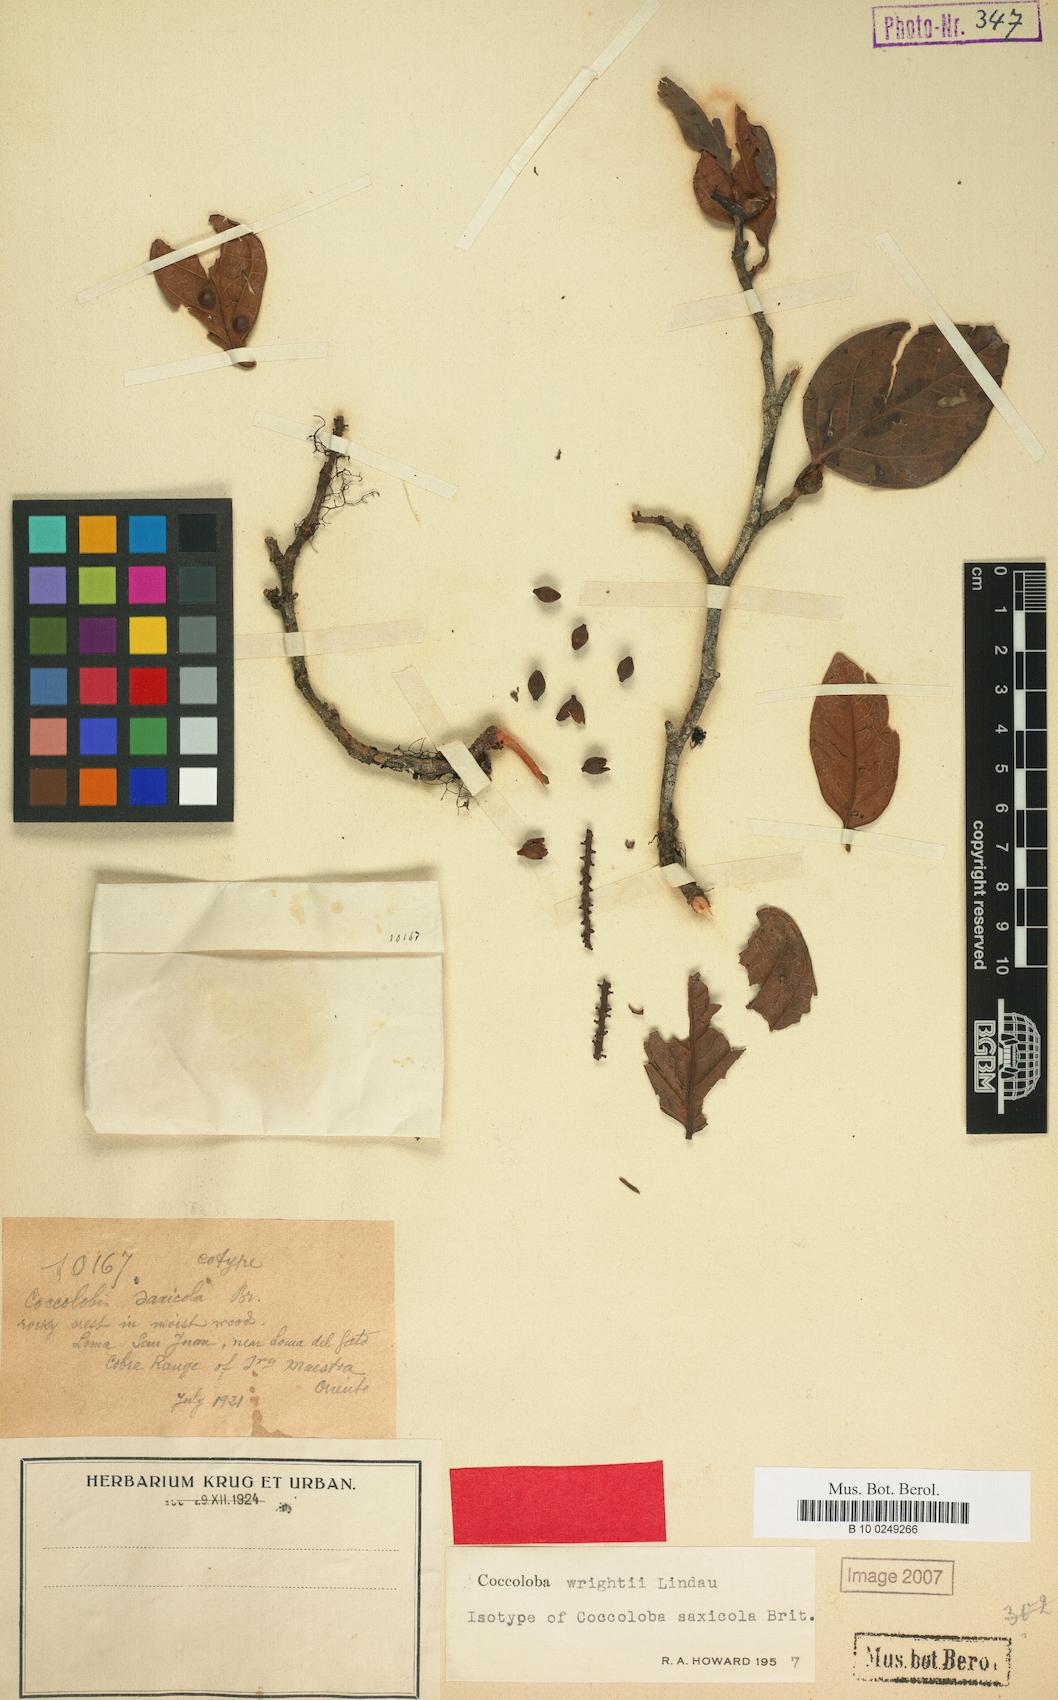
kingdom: Plantae
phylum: Tracheophyta
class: Magnoliopsida
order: Caryophyllales
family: Polygonaceae
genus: Coccoloba
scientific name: Coccoloba wrightii
